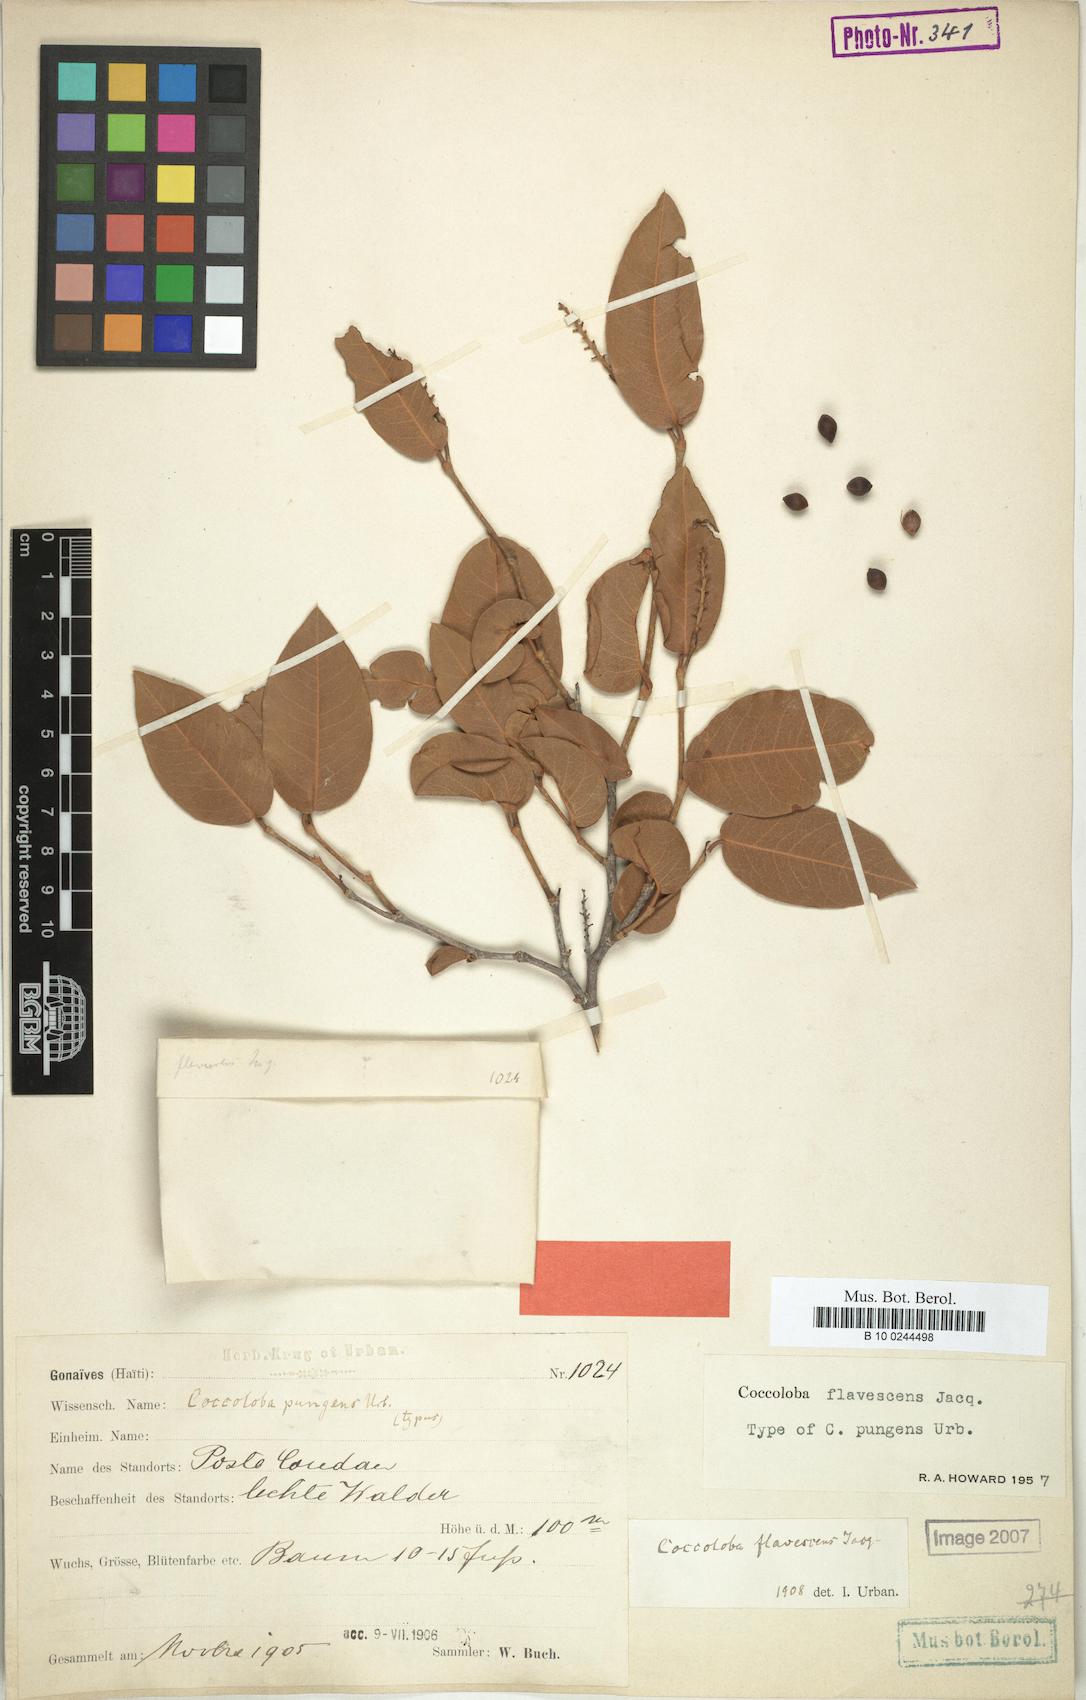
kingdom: Plantae
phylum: Tracheophyta
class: Magnoliopsida
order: Caryophyllales
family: Polygonaceae
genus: Coccoloba
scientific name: Coccoloba flavescens
